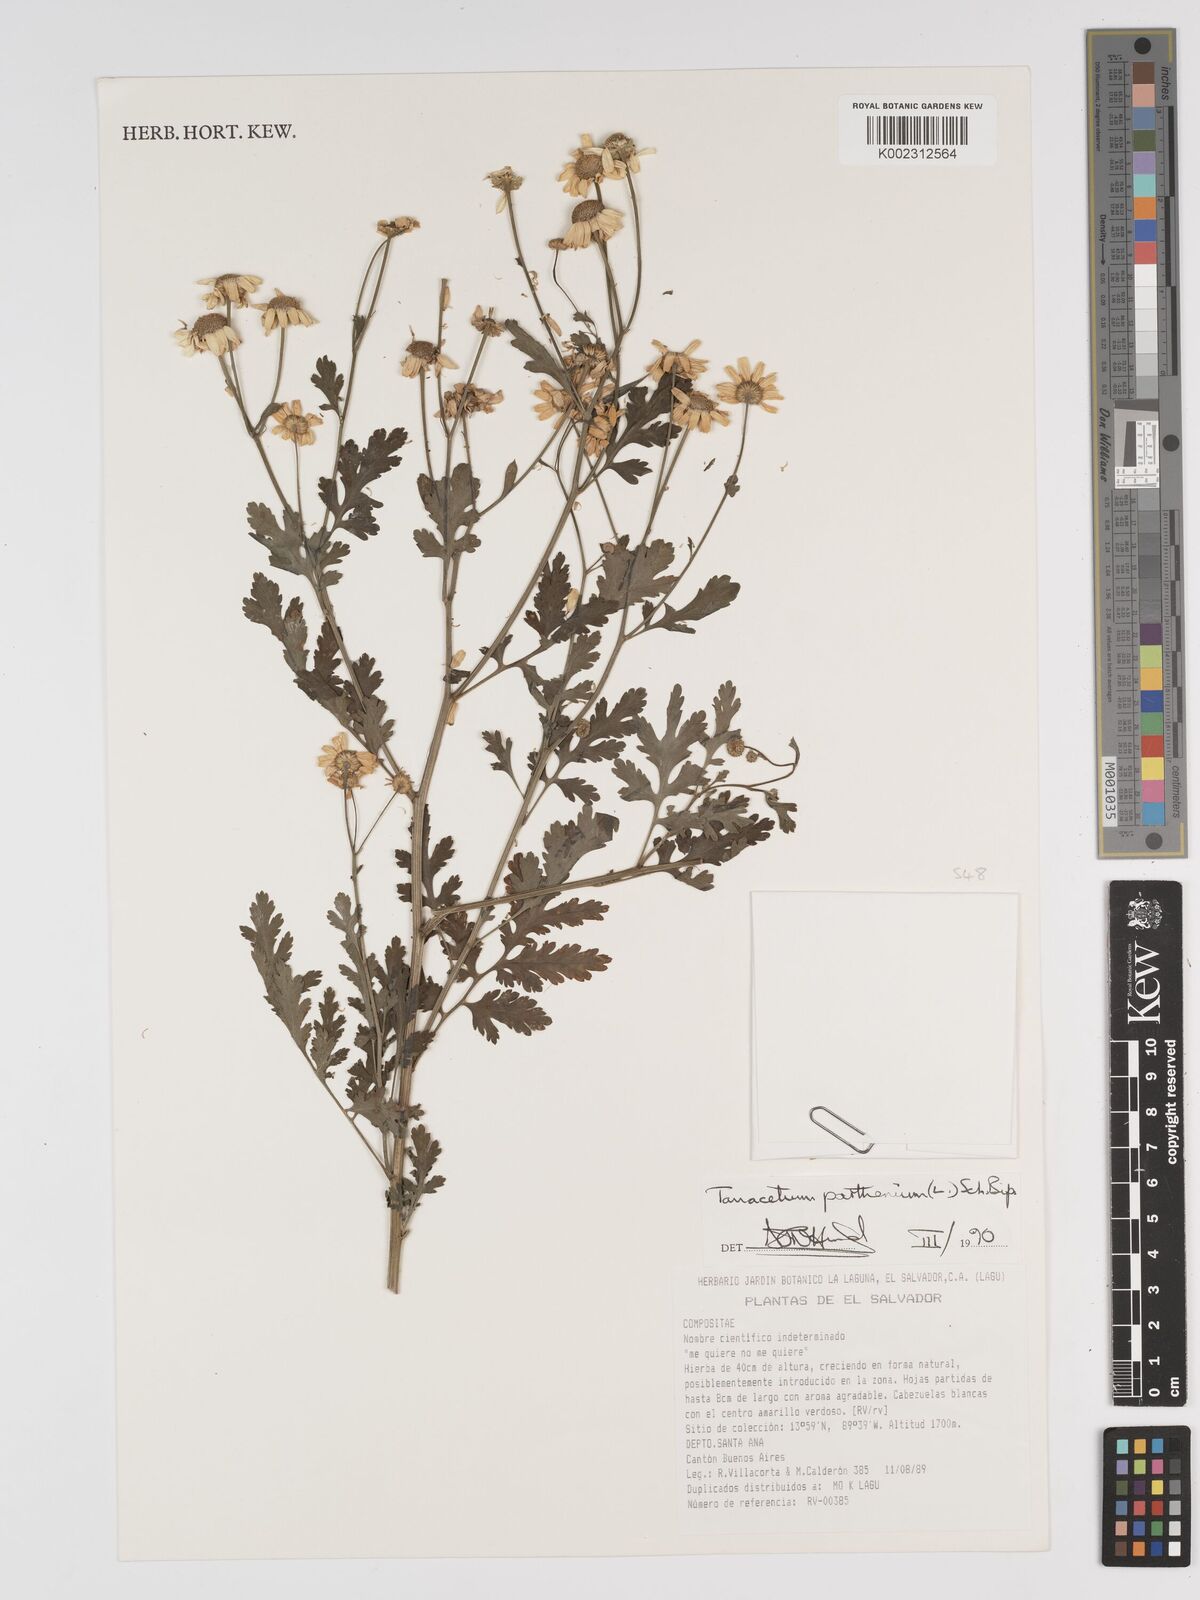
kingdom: Plantae
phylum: Tracheophyta
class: Magnoliopsida
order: Asterales
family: Asteraceae
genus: Tanacetum
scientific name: Tanacetum parthenium
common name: Feverfew
